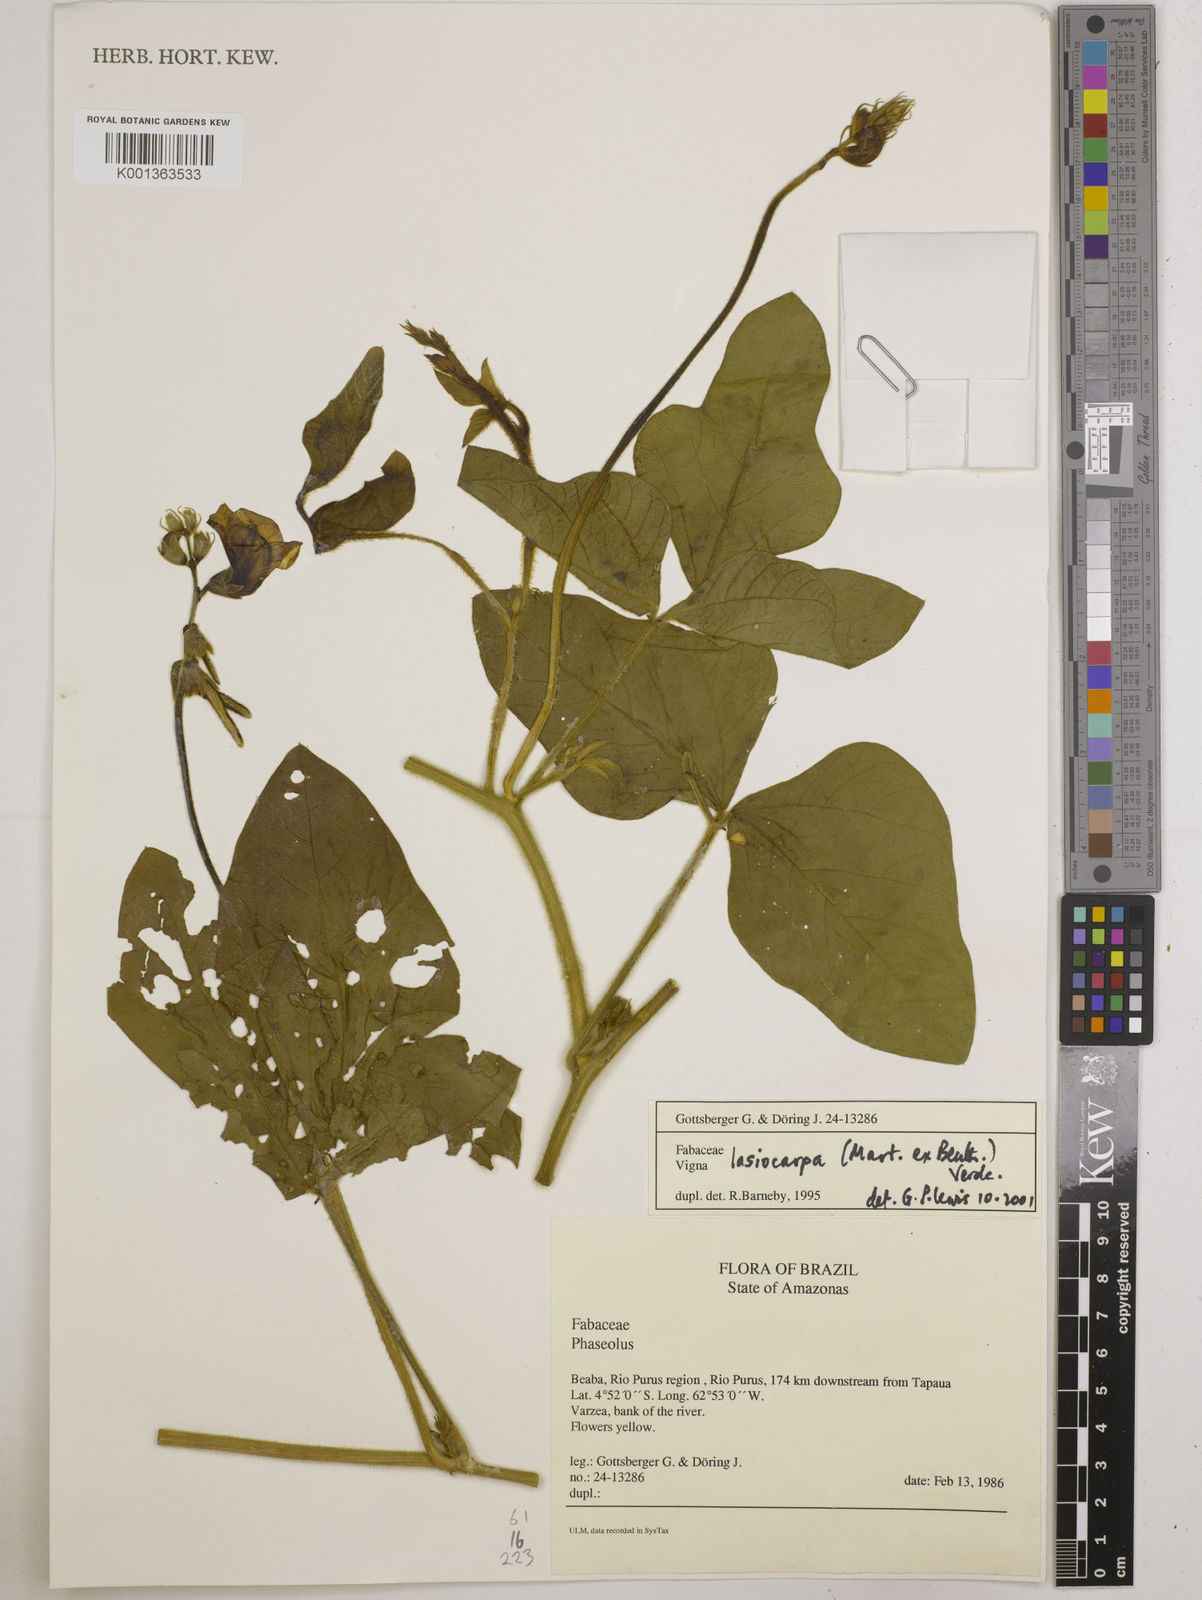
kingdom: Plantae
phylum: Tracheophyta
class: Magnoliopsida
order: Fabales
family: Fabaceae
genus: Vigna
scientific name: Vigna lasiocarpa
